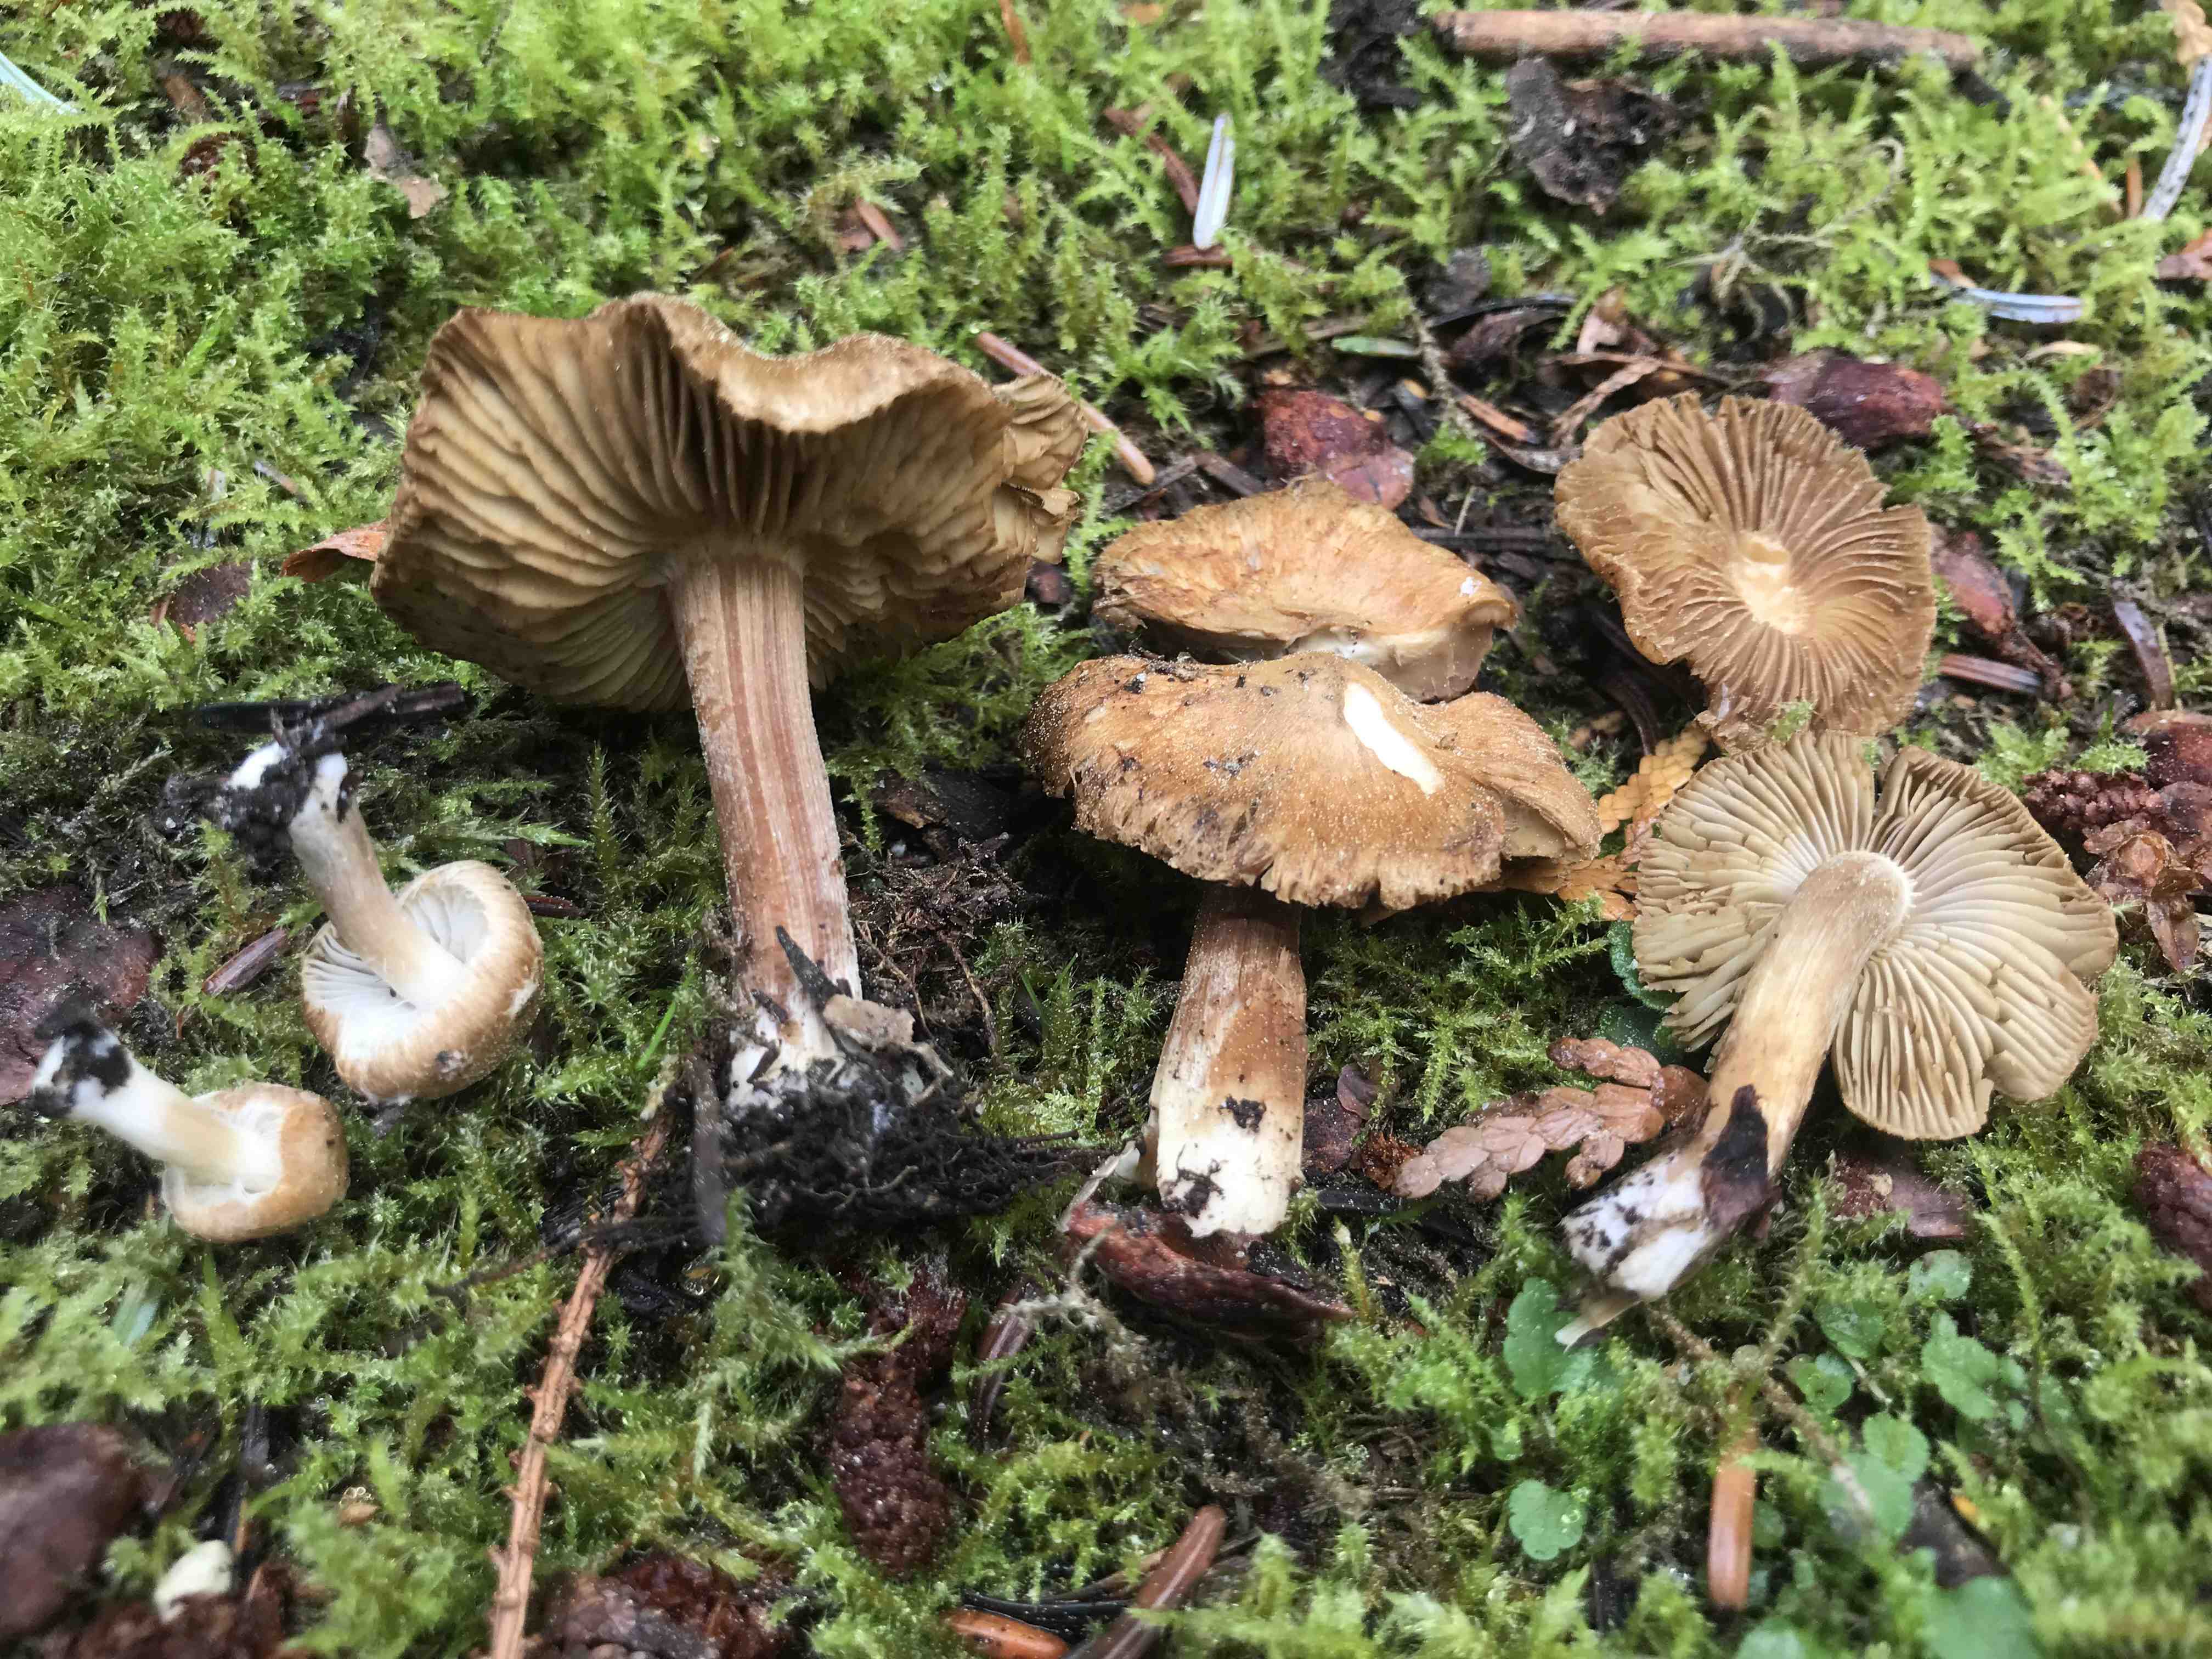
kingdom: Fungi
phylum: Basidiomycota
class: Agaricomycetes
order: Agaricales
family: Inocybaceae
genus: Inocybe
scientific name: Inocybe
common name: trævlhat
